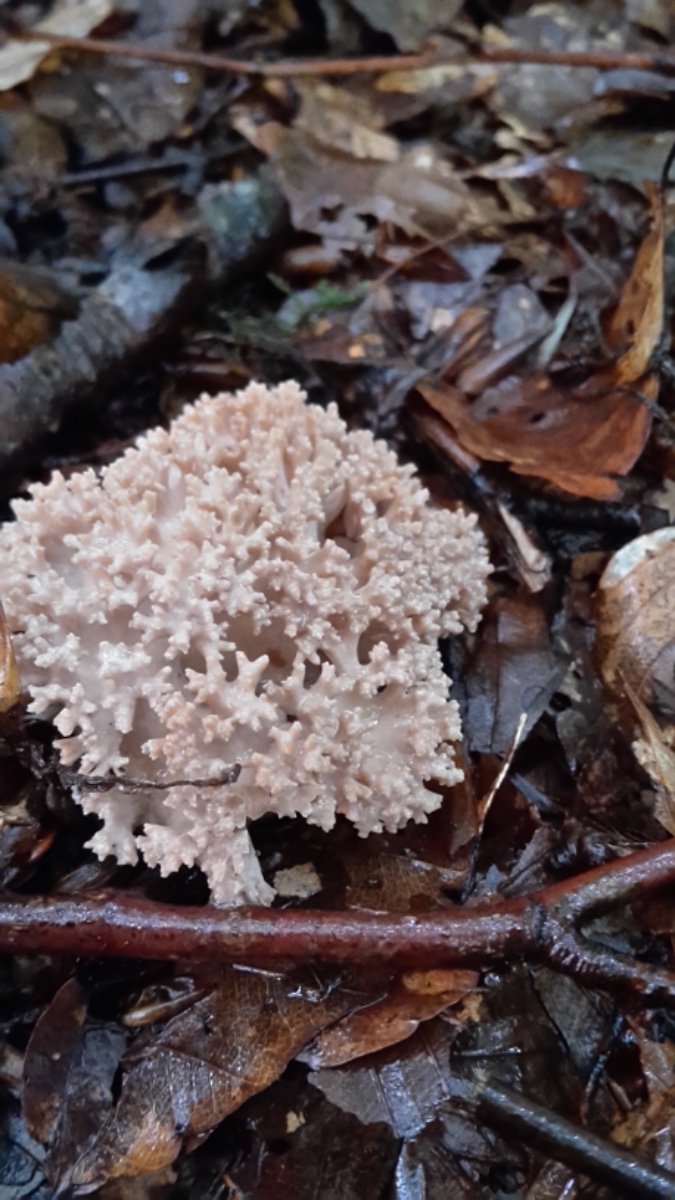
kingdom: Fungi
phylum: Basidiomycota
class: Agaricomycetes
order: Gomphales
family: Gomphaceae
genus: Ramaria
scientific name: Ramaria
